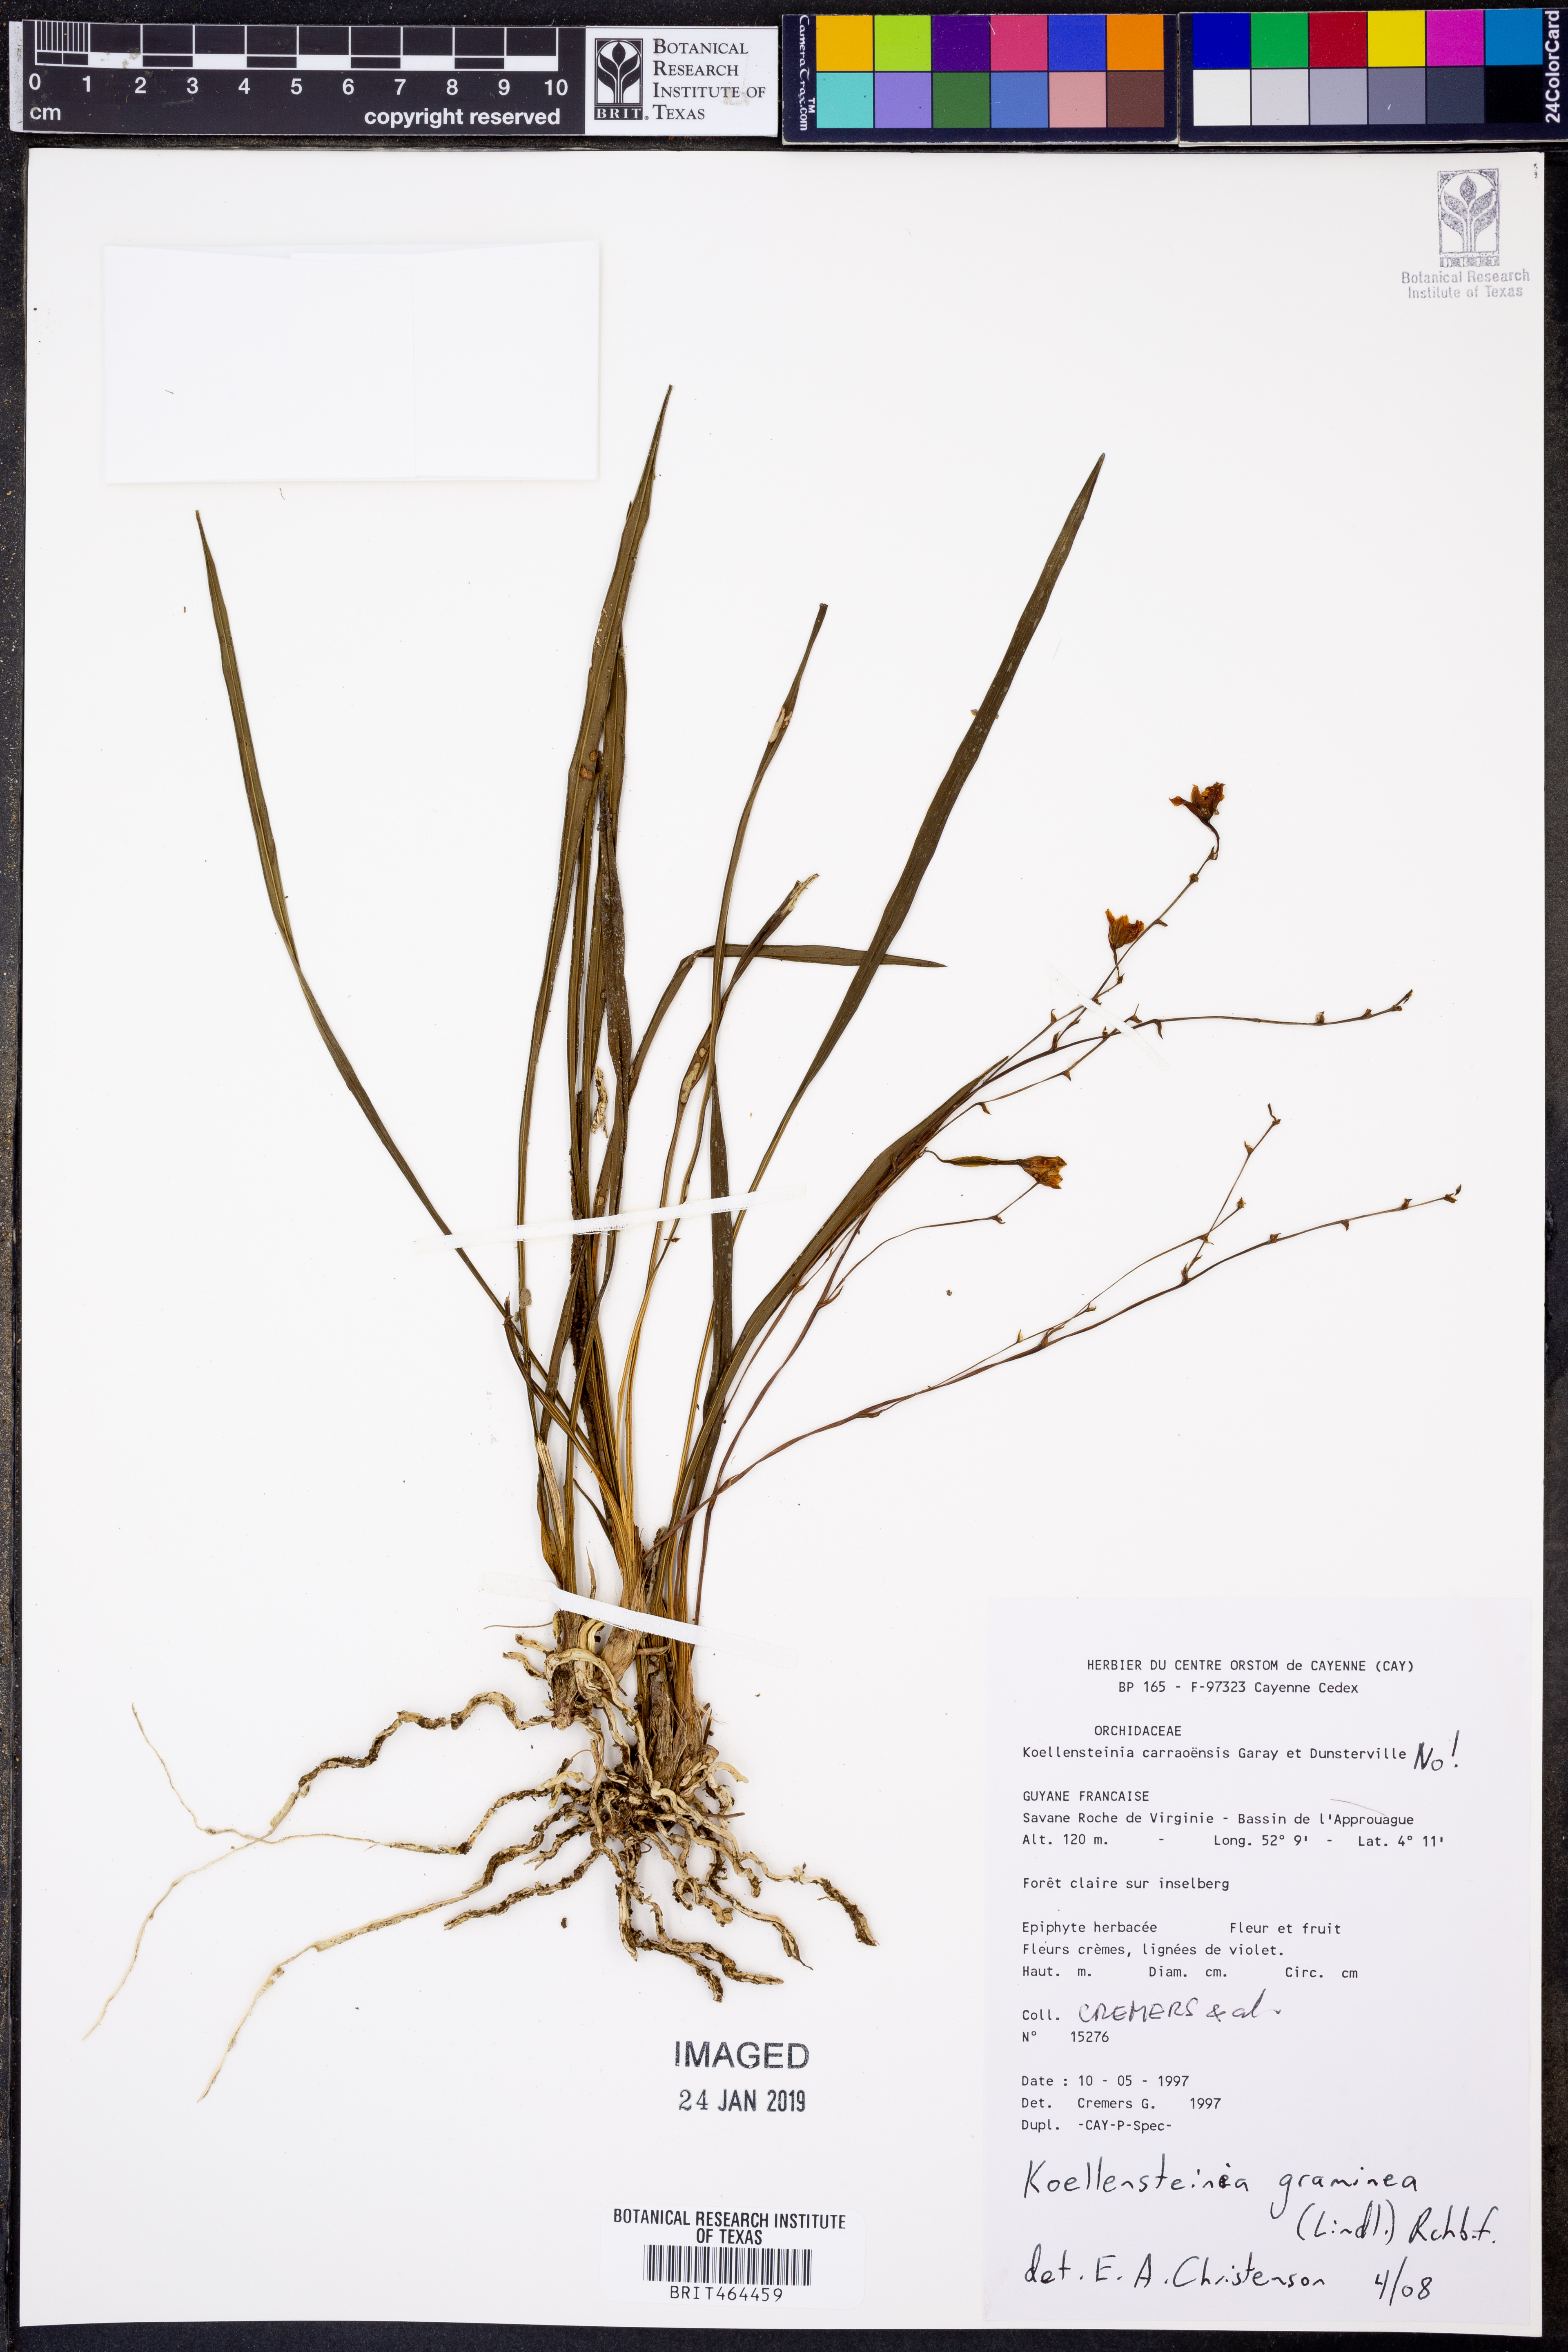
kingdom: Plantae
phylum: Tracheophyta
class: Liliopsida
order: Asparagales
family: Orchidaceae
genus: Koellensteinia
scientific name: Koellensteinia graminea
